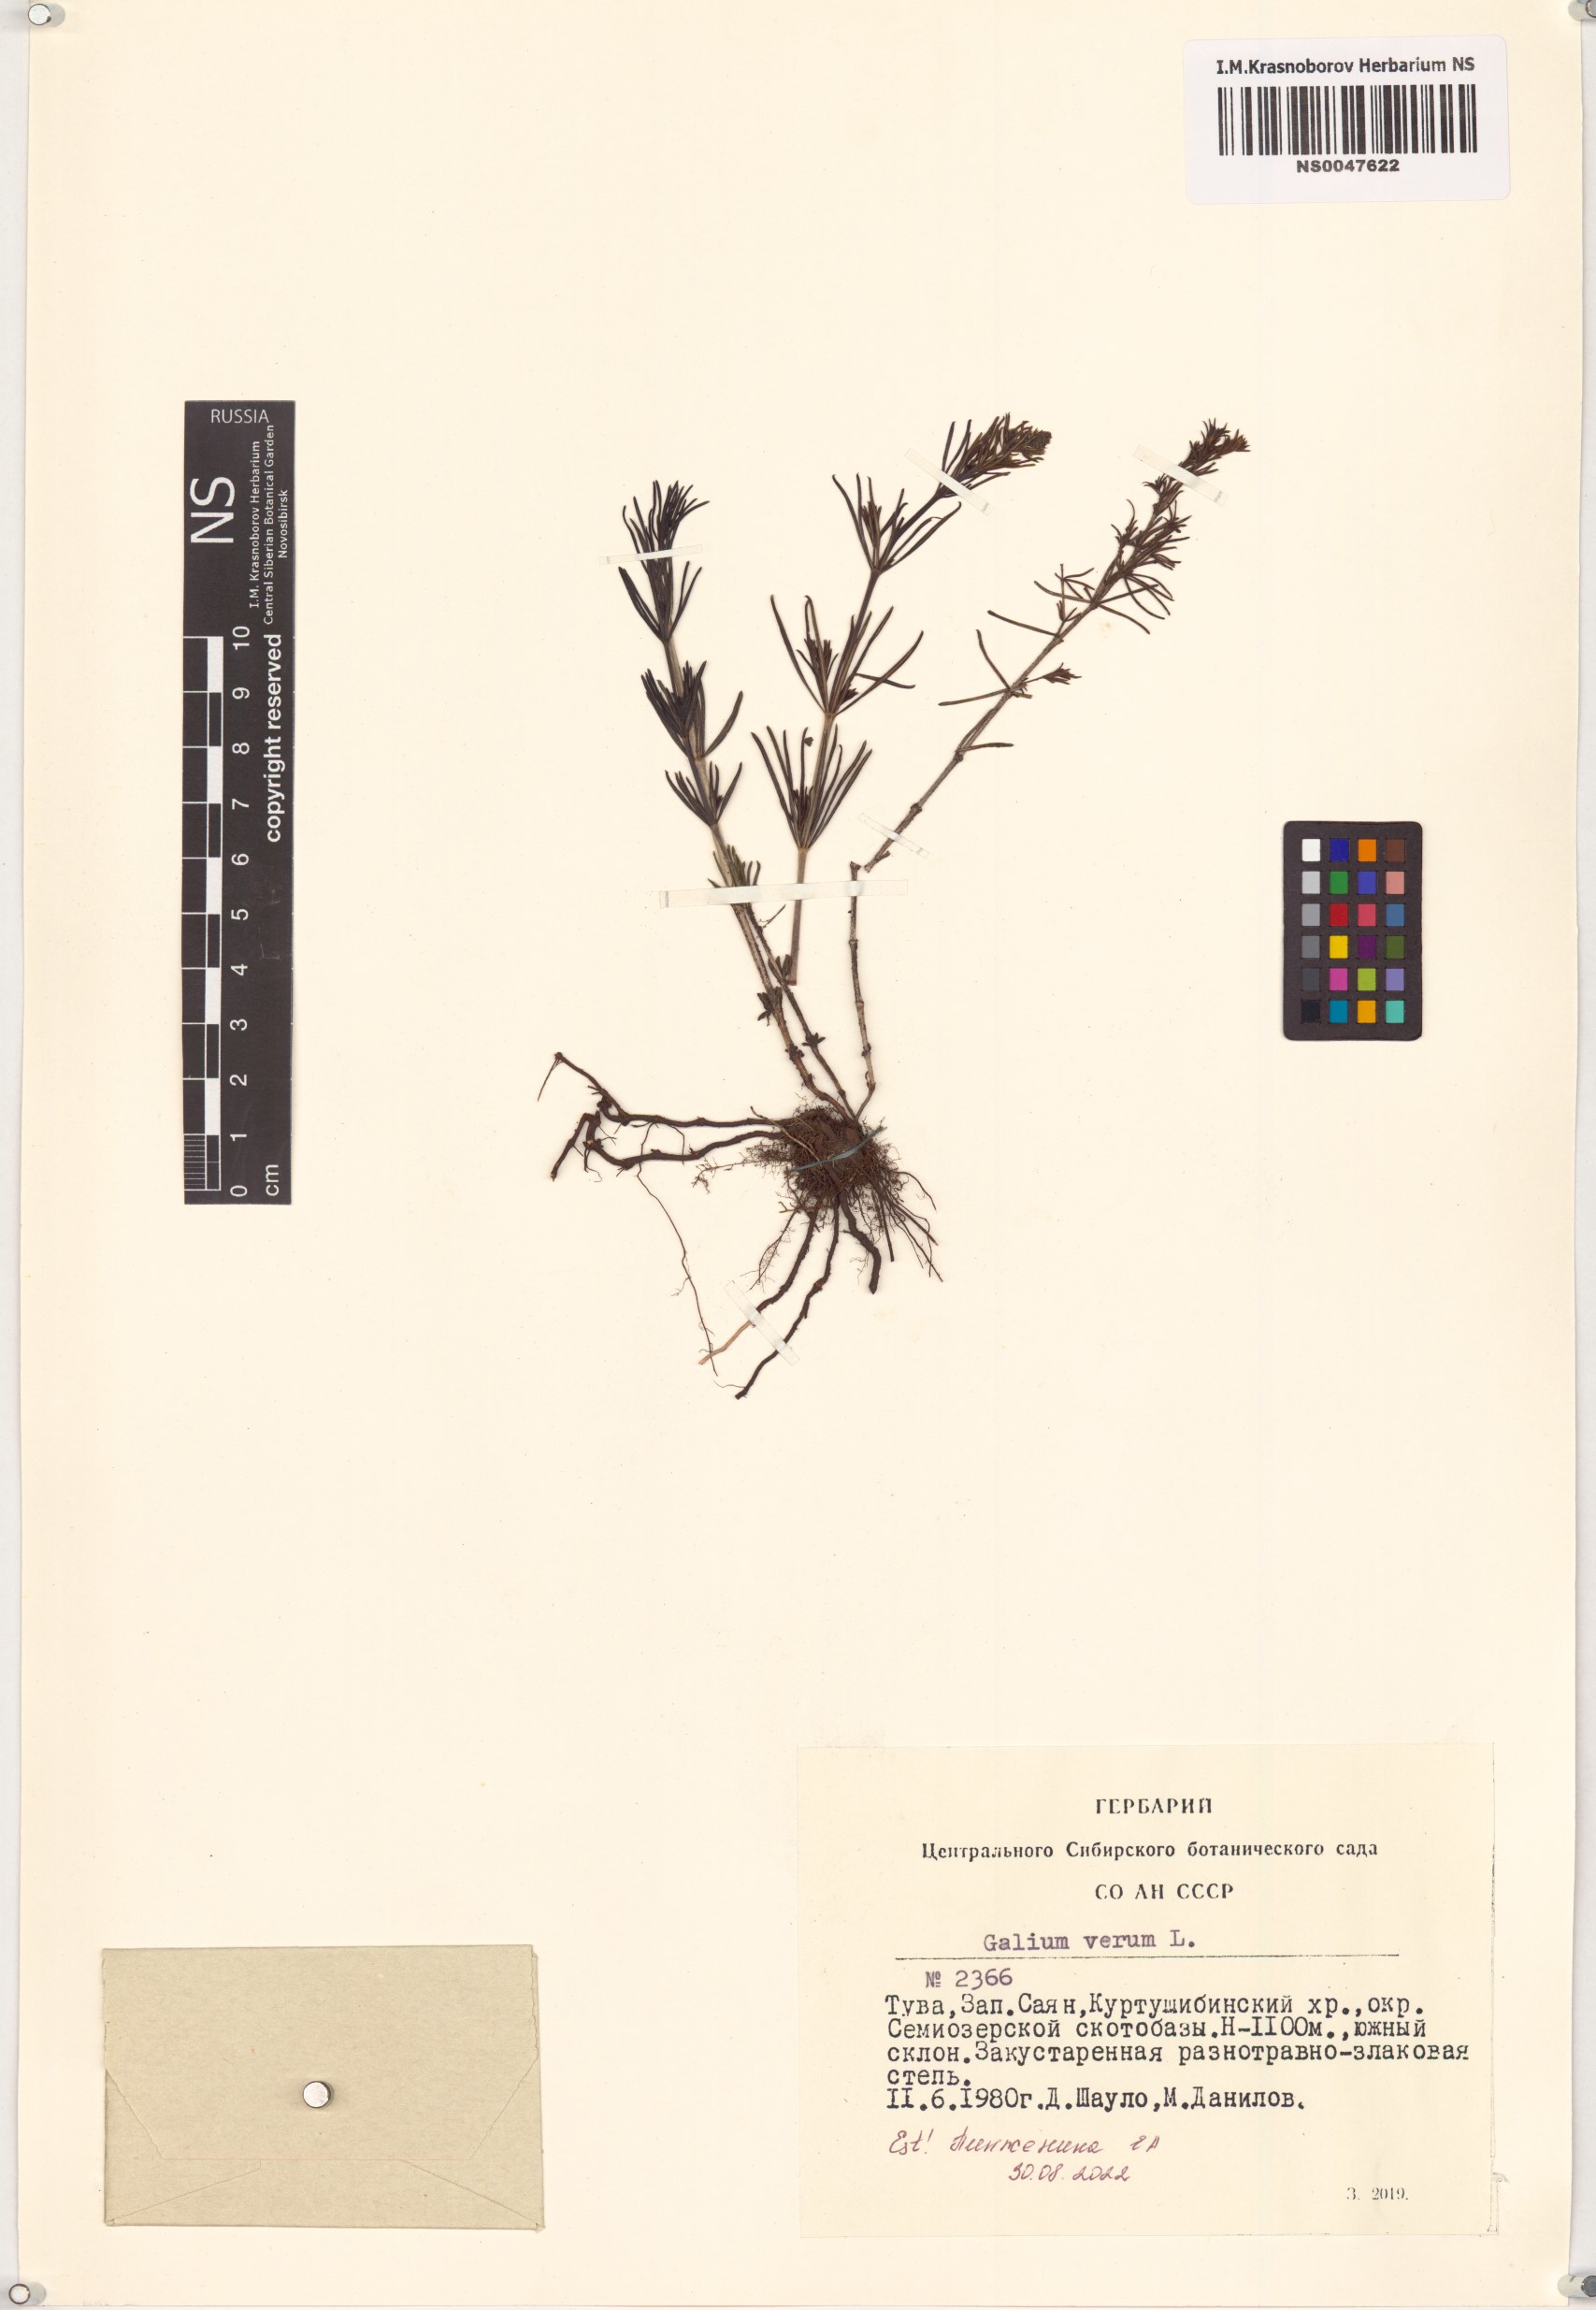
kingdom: Plantae
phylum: Tracheophyta
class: Magnoliopsida
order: Gentianales
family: Rubiaceae
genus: Galium
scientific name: Galium verum
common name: Lady's bedstraw
